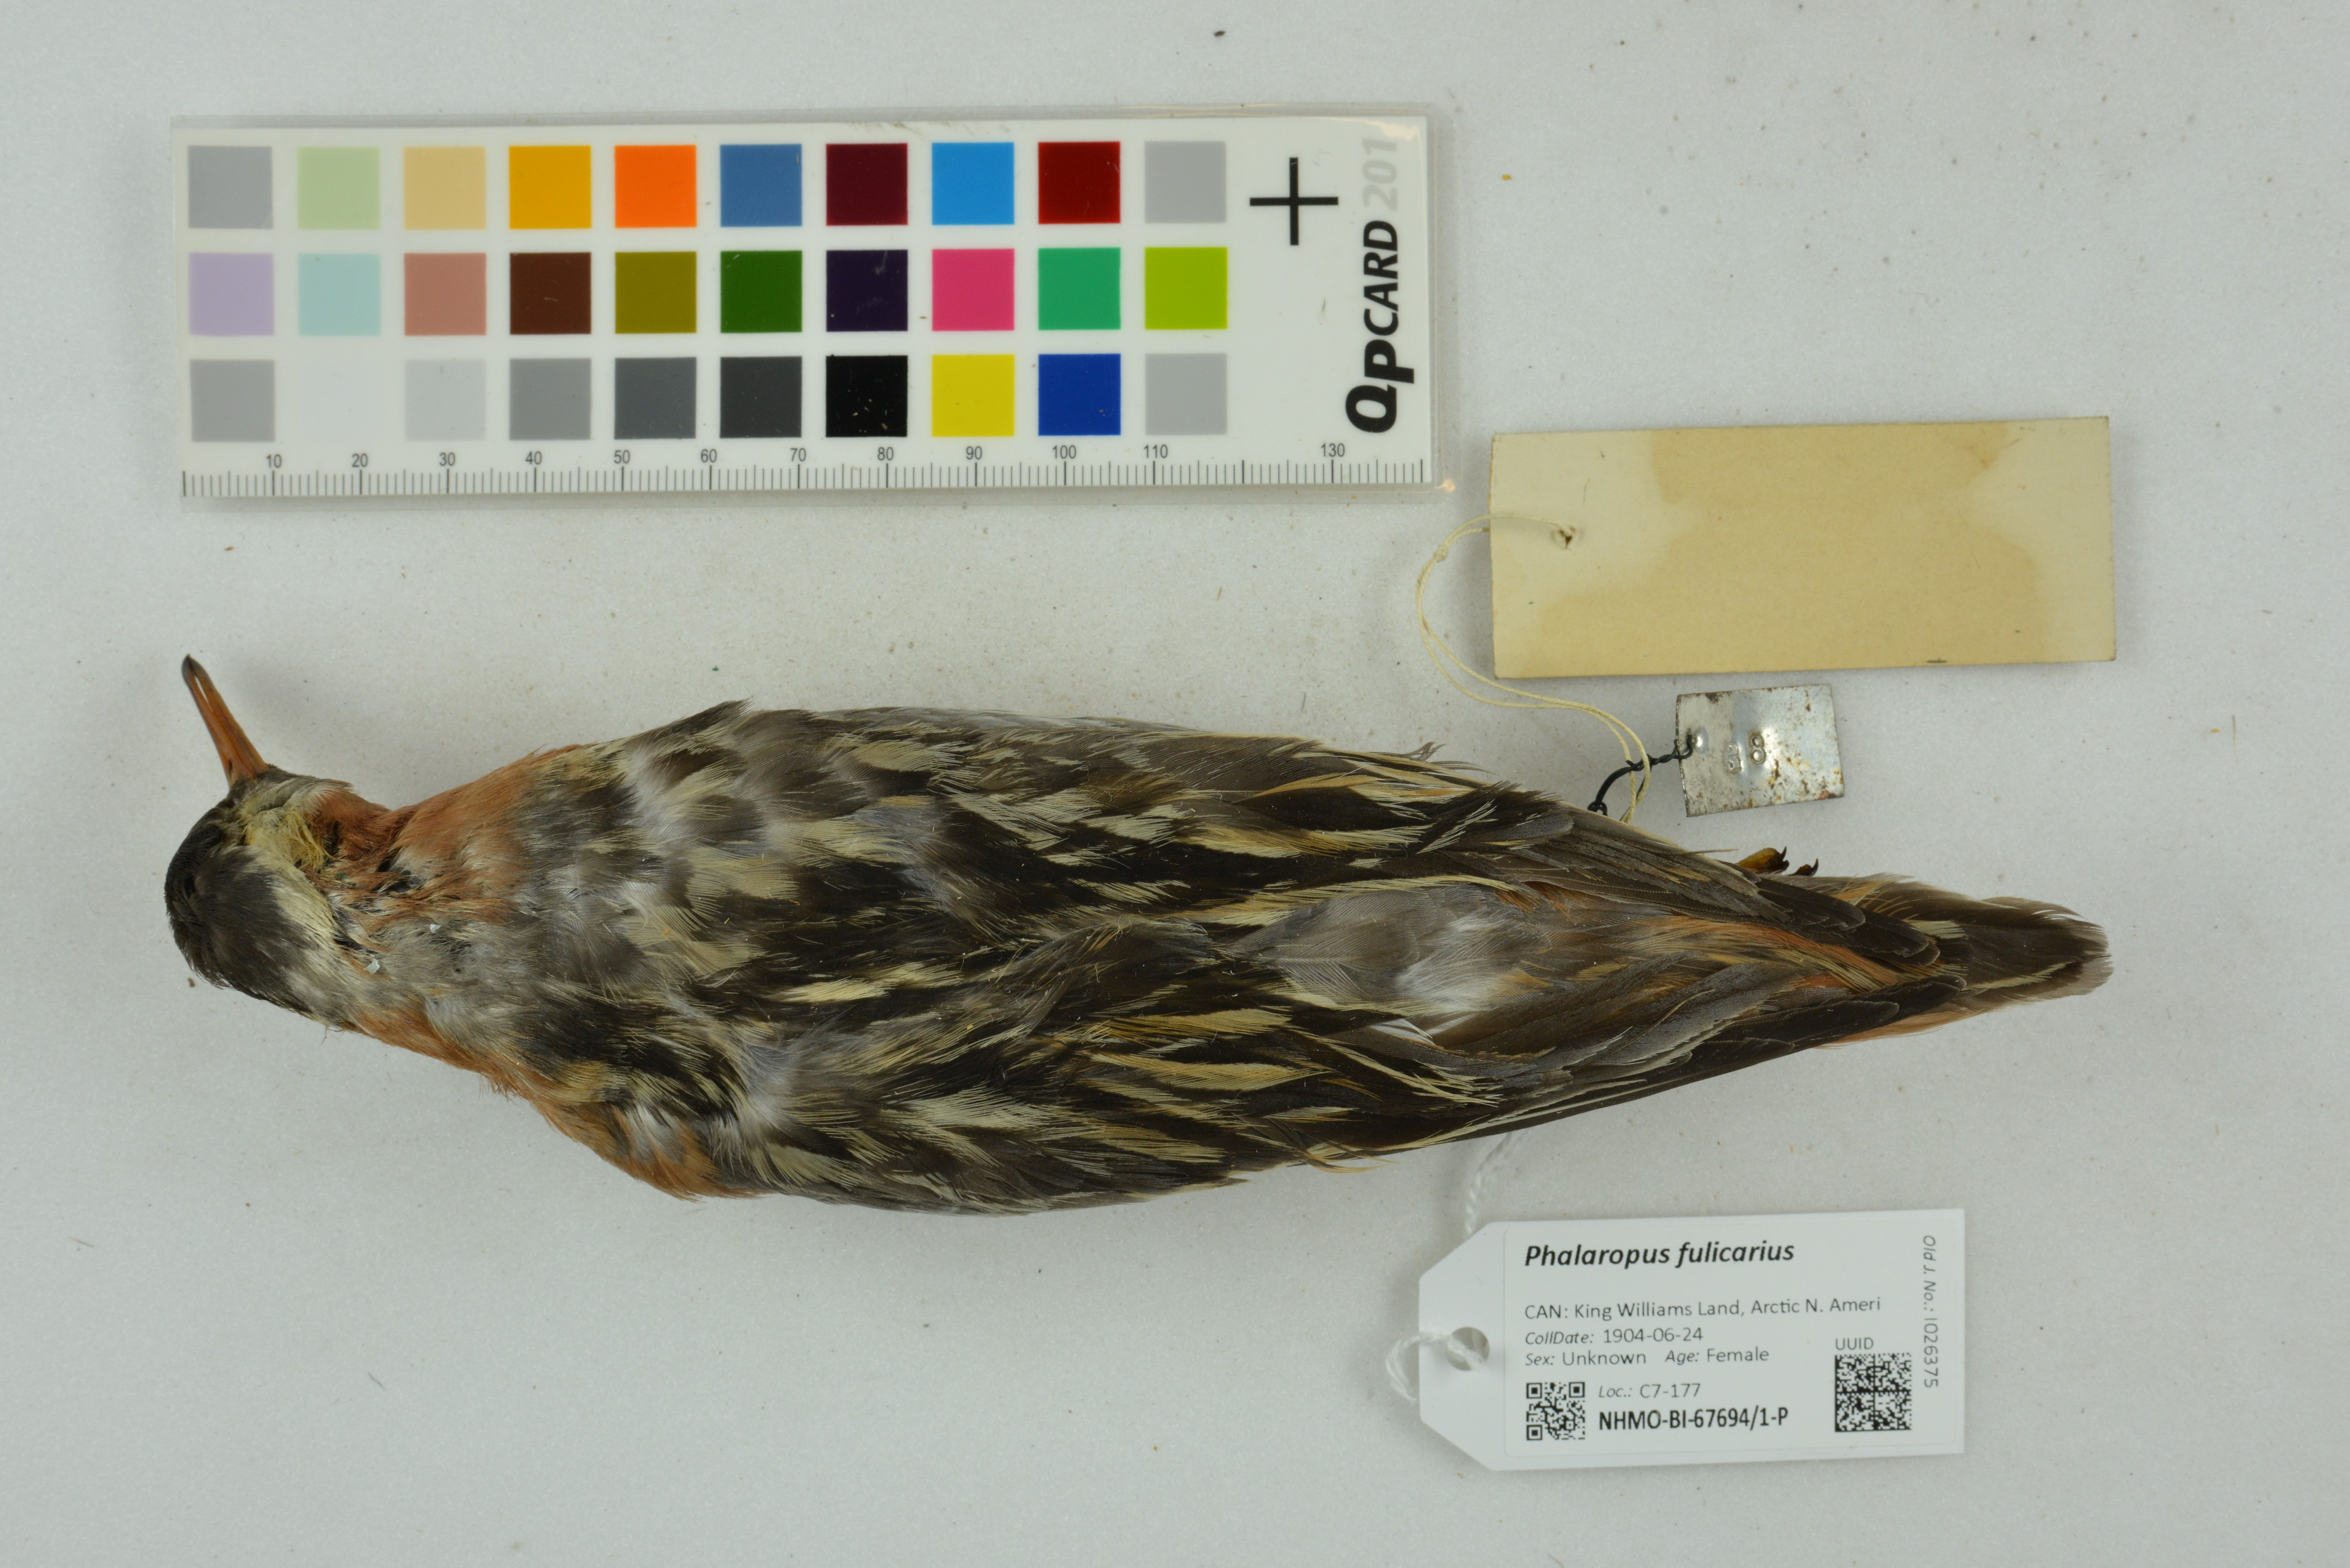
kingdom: Animalia
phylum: Chordata
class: Aves
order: Charadriiformes
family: Scolopacidae
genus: Phalaropus
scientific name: Phalaropus fulicarius
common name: Red phalarope
